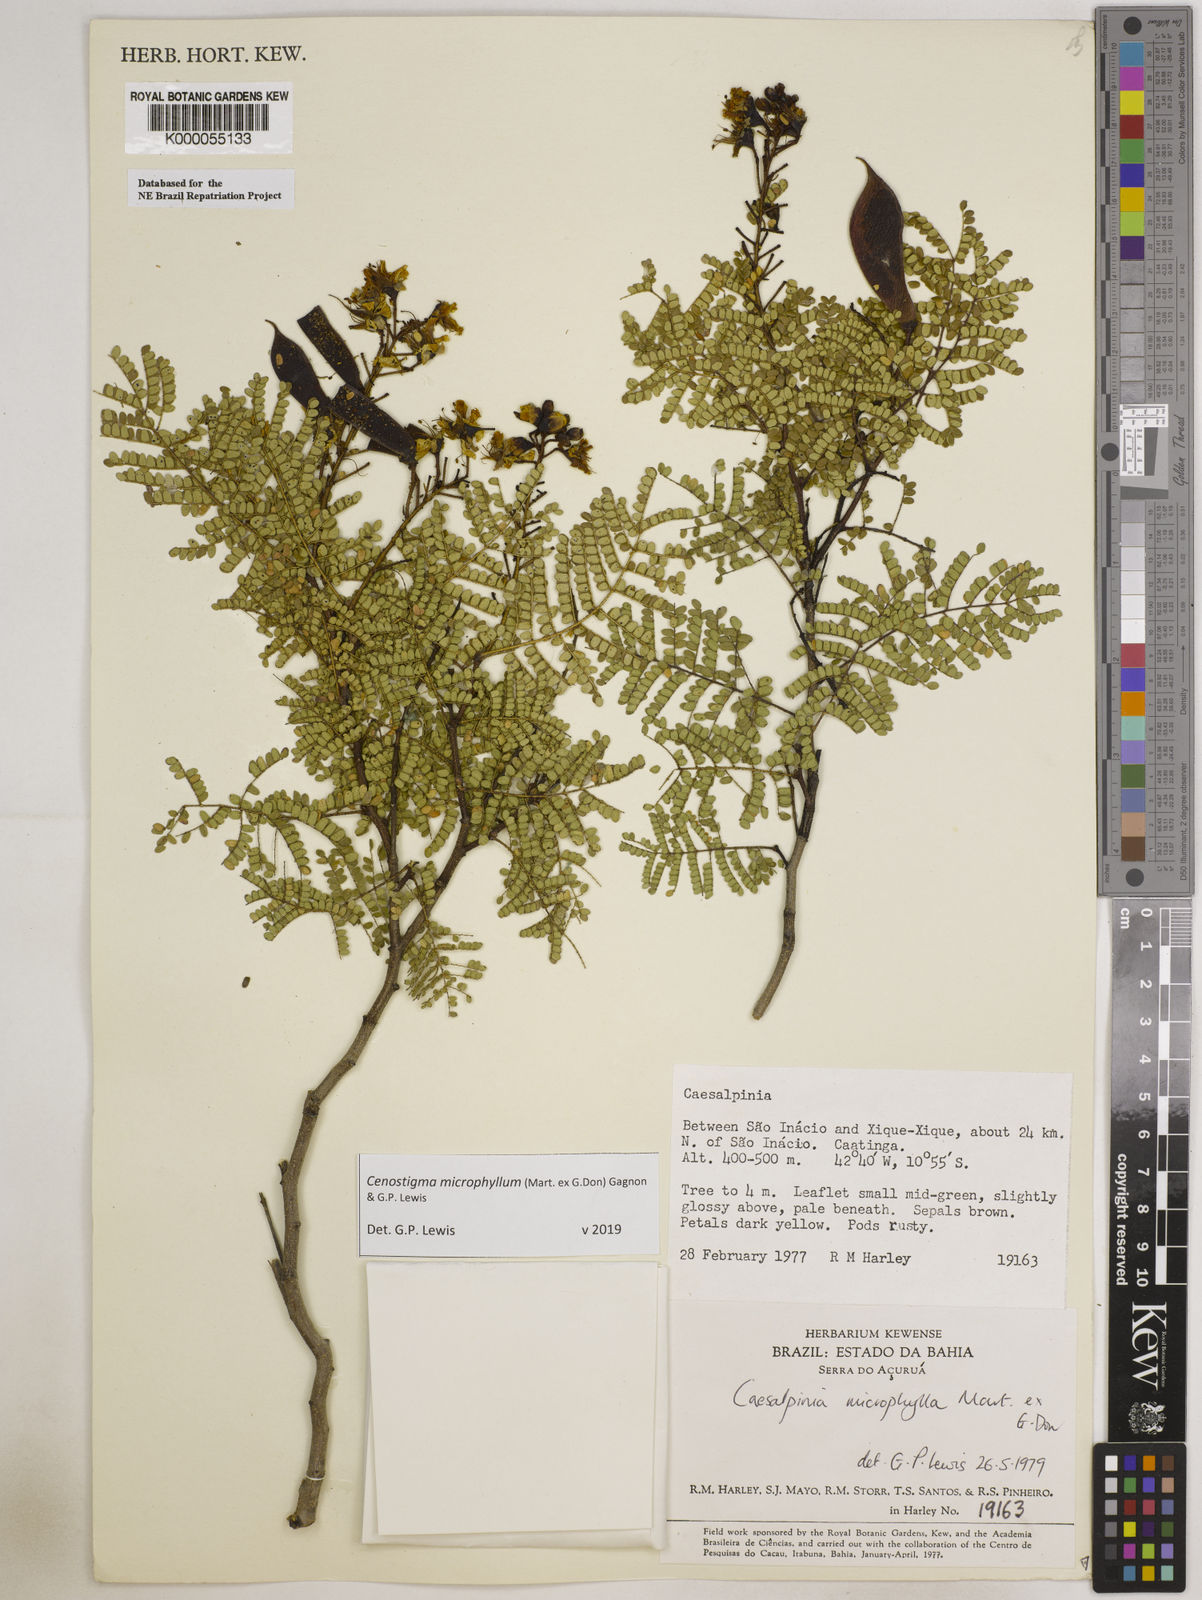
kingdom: Plantae
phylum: Tracheophyta
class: Magnoliopsida
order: Fabales
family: Fabaceae
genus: Cenostigma
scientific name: Cenostigma microphyllum
